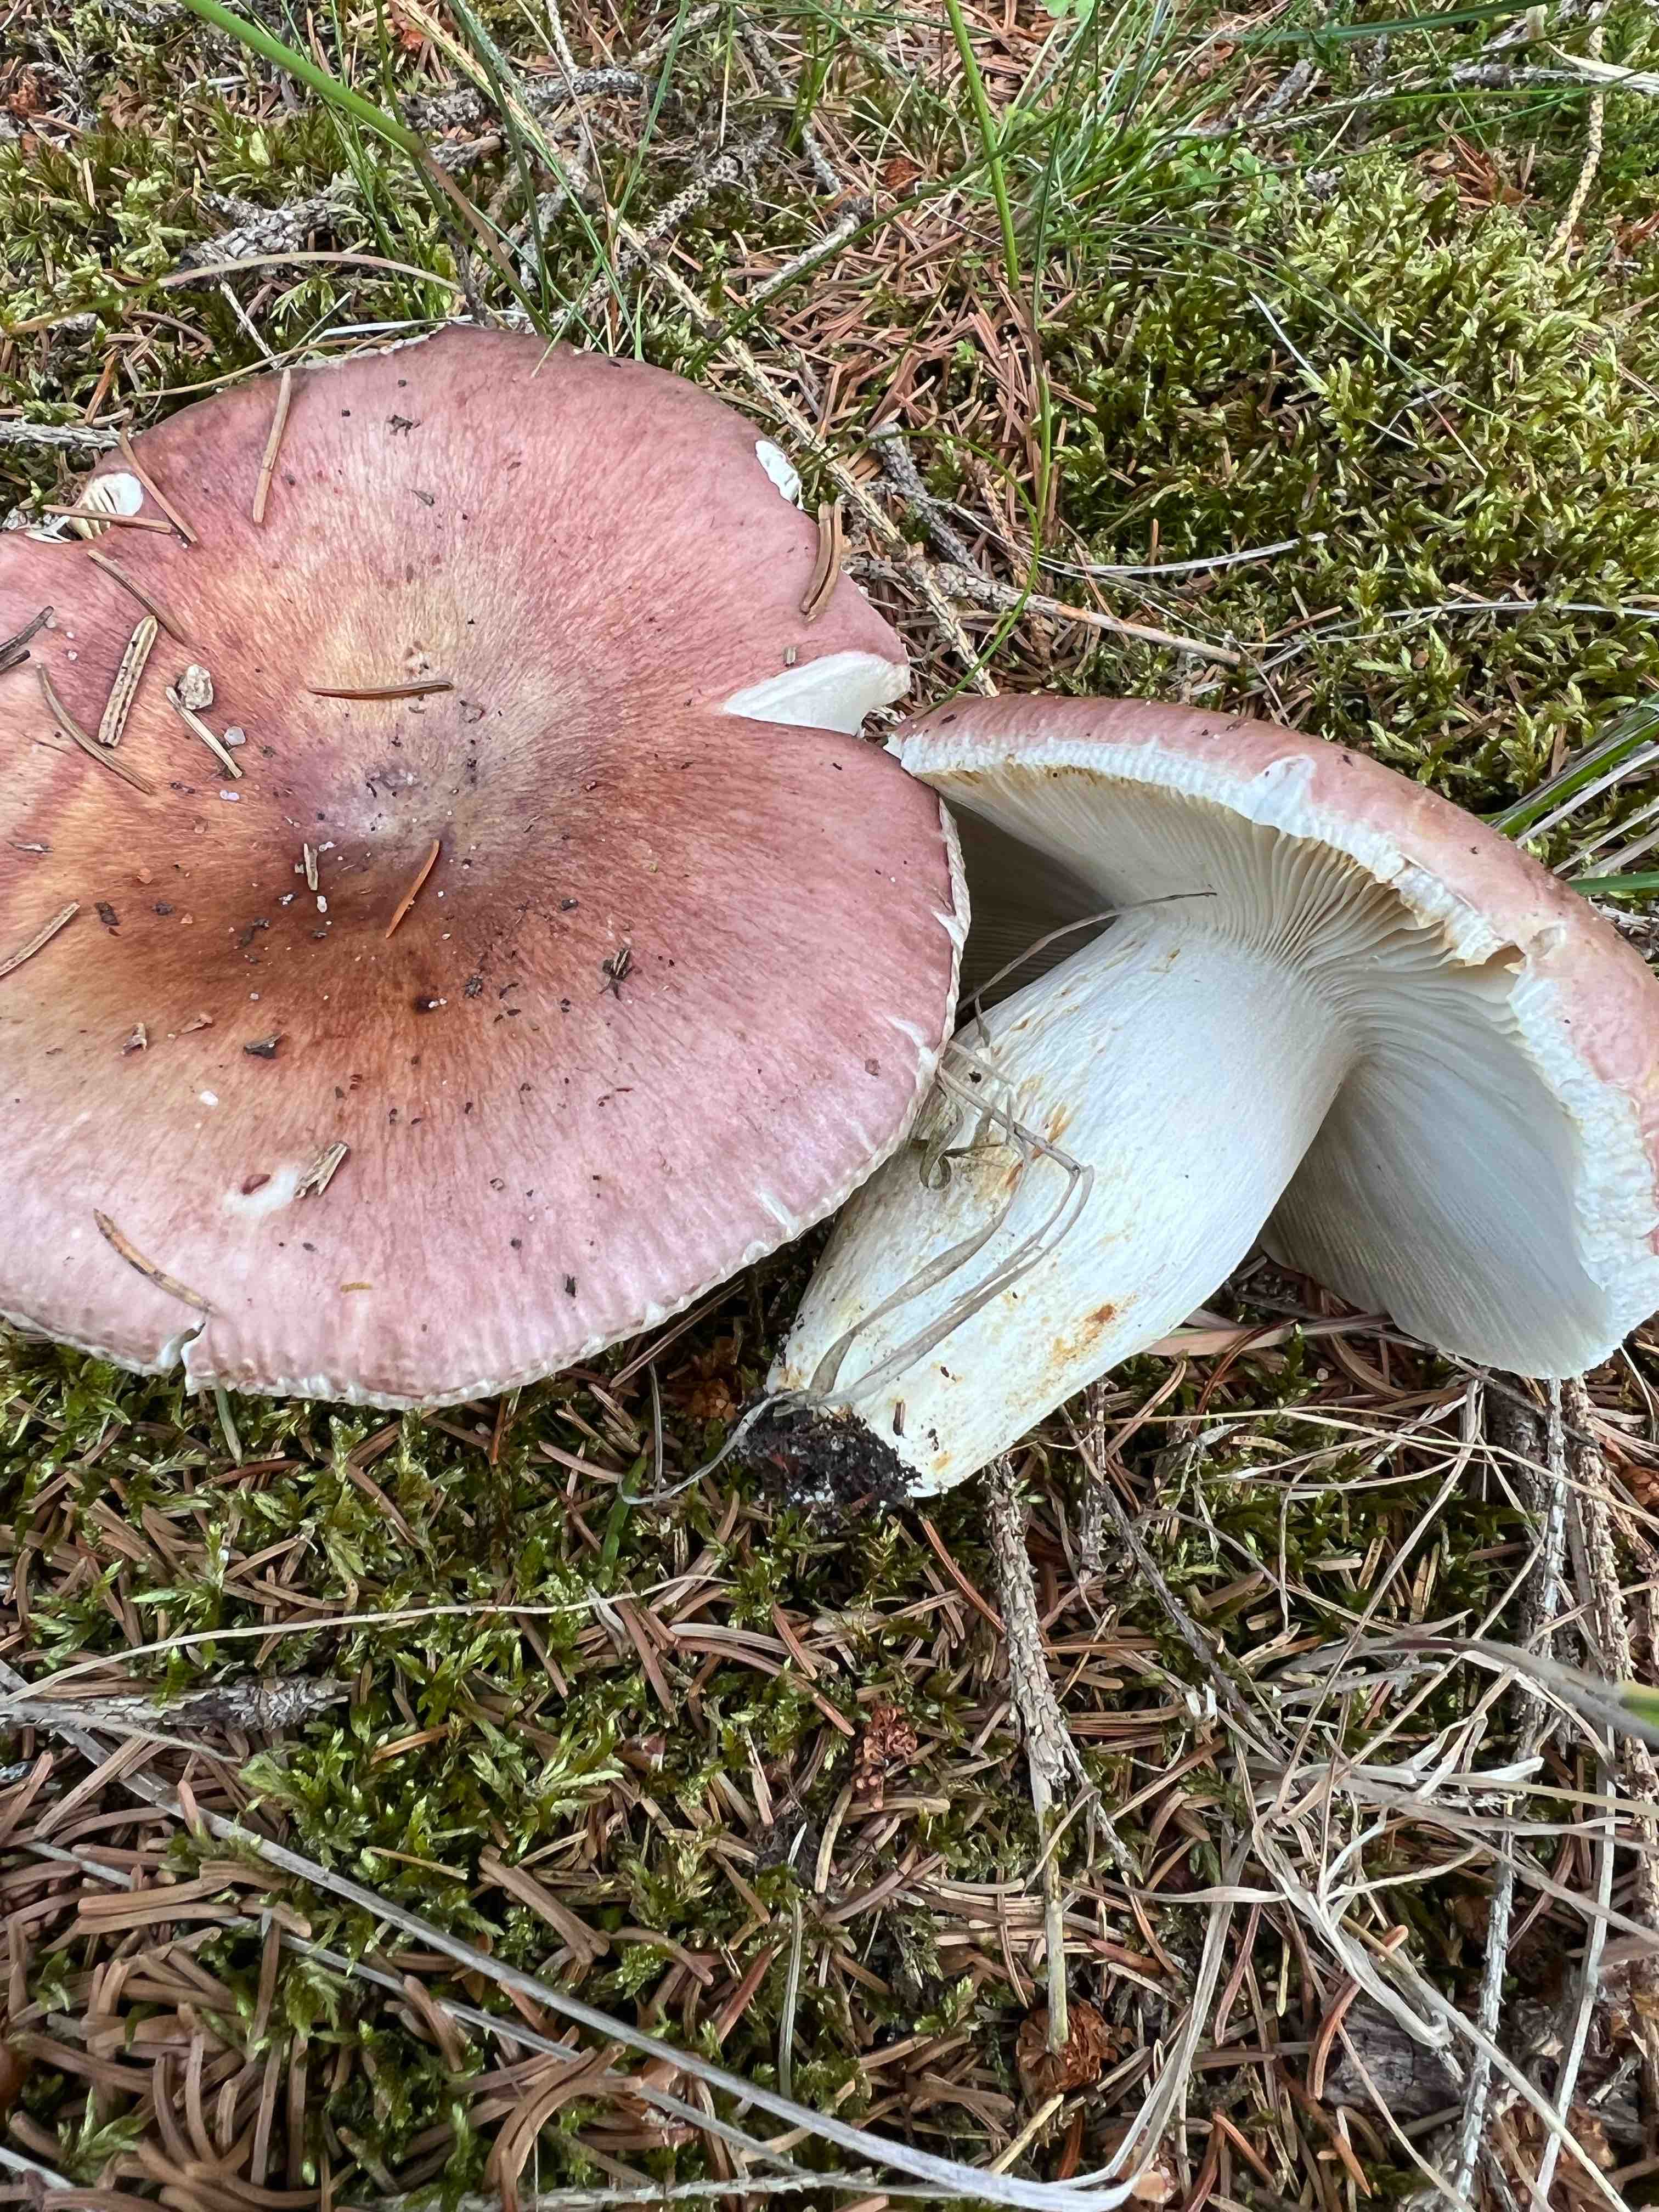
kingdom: Fungi
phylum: Basidiomycota
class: Agaricomycetes
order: Russulales
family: Russulaceae
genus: Russula
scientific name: Russula vesca
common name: spiselig skørhat
